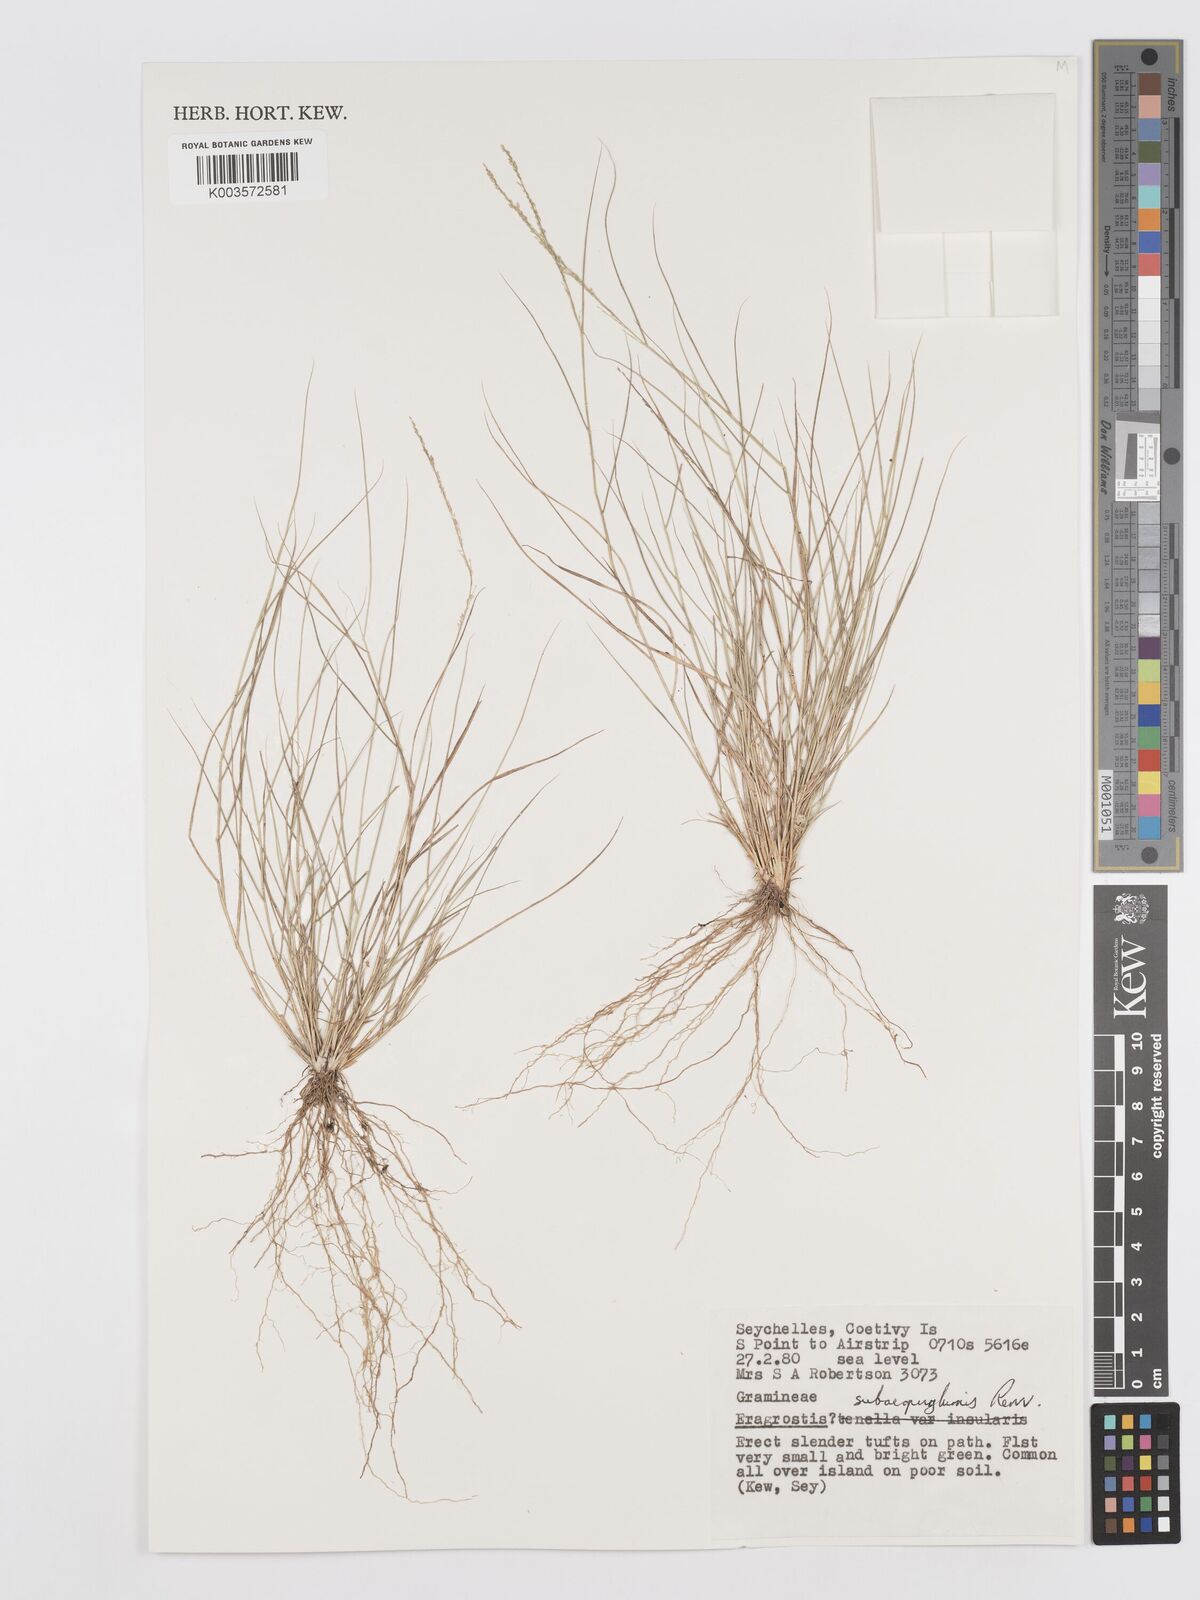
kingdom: Plantae
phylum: Tracheophyta
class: Liliopsida
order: Poales
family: Poaceae
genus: Eragrostis
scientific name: Eragrostis subaequiglumis
